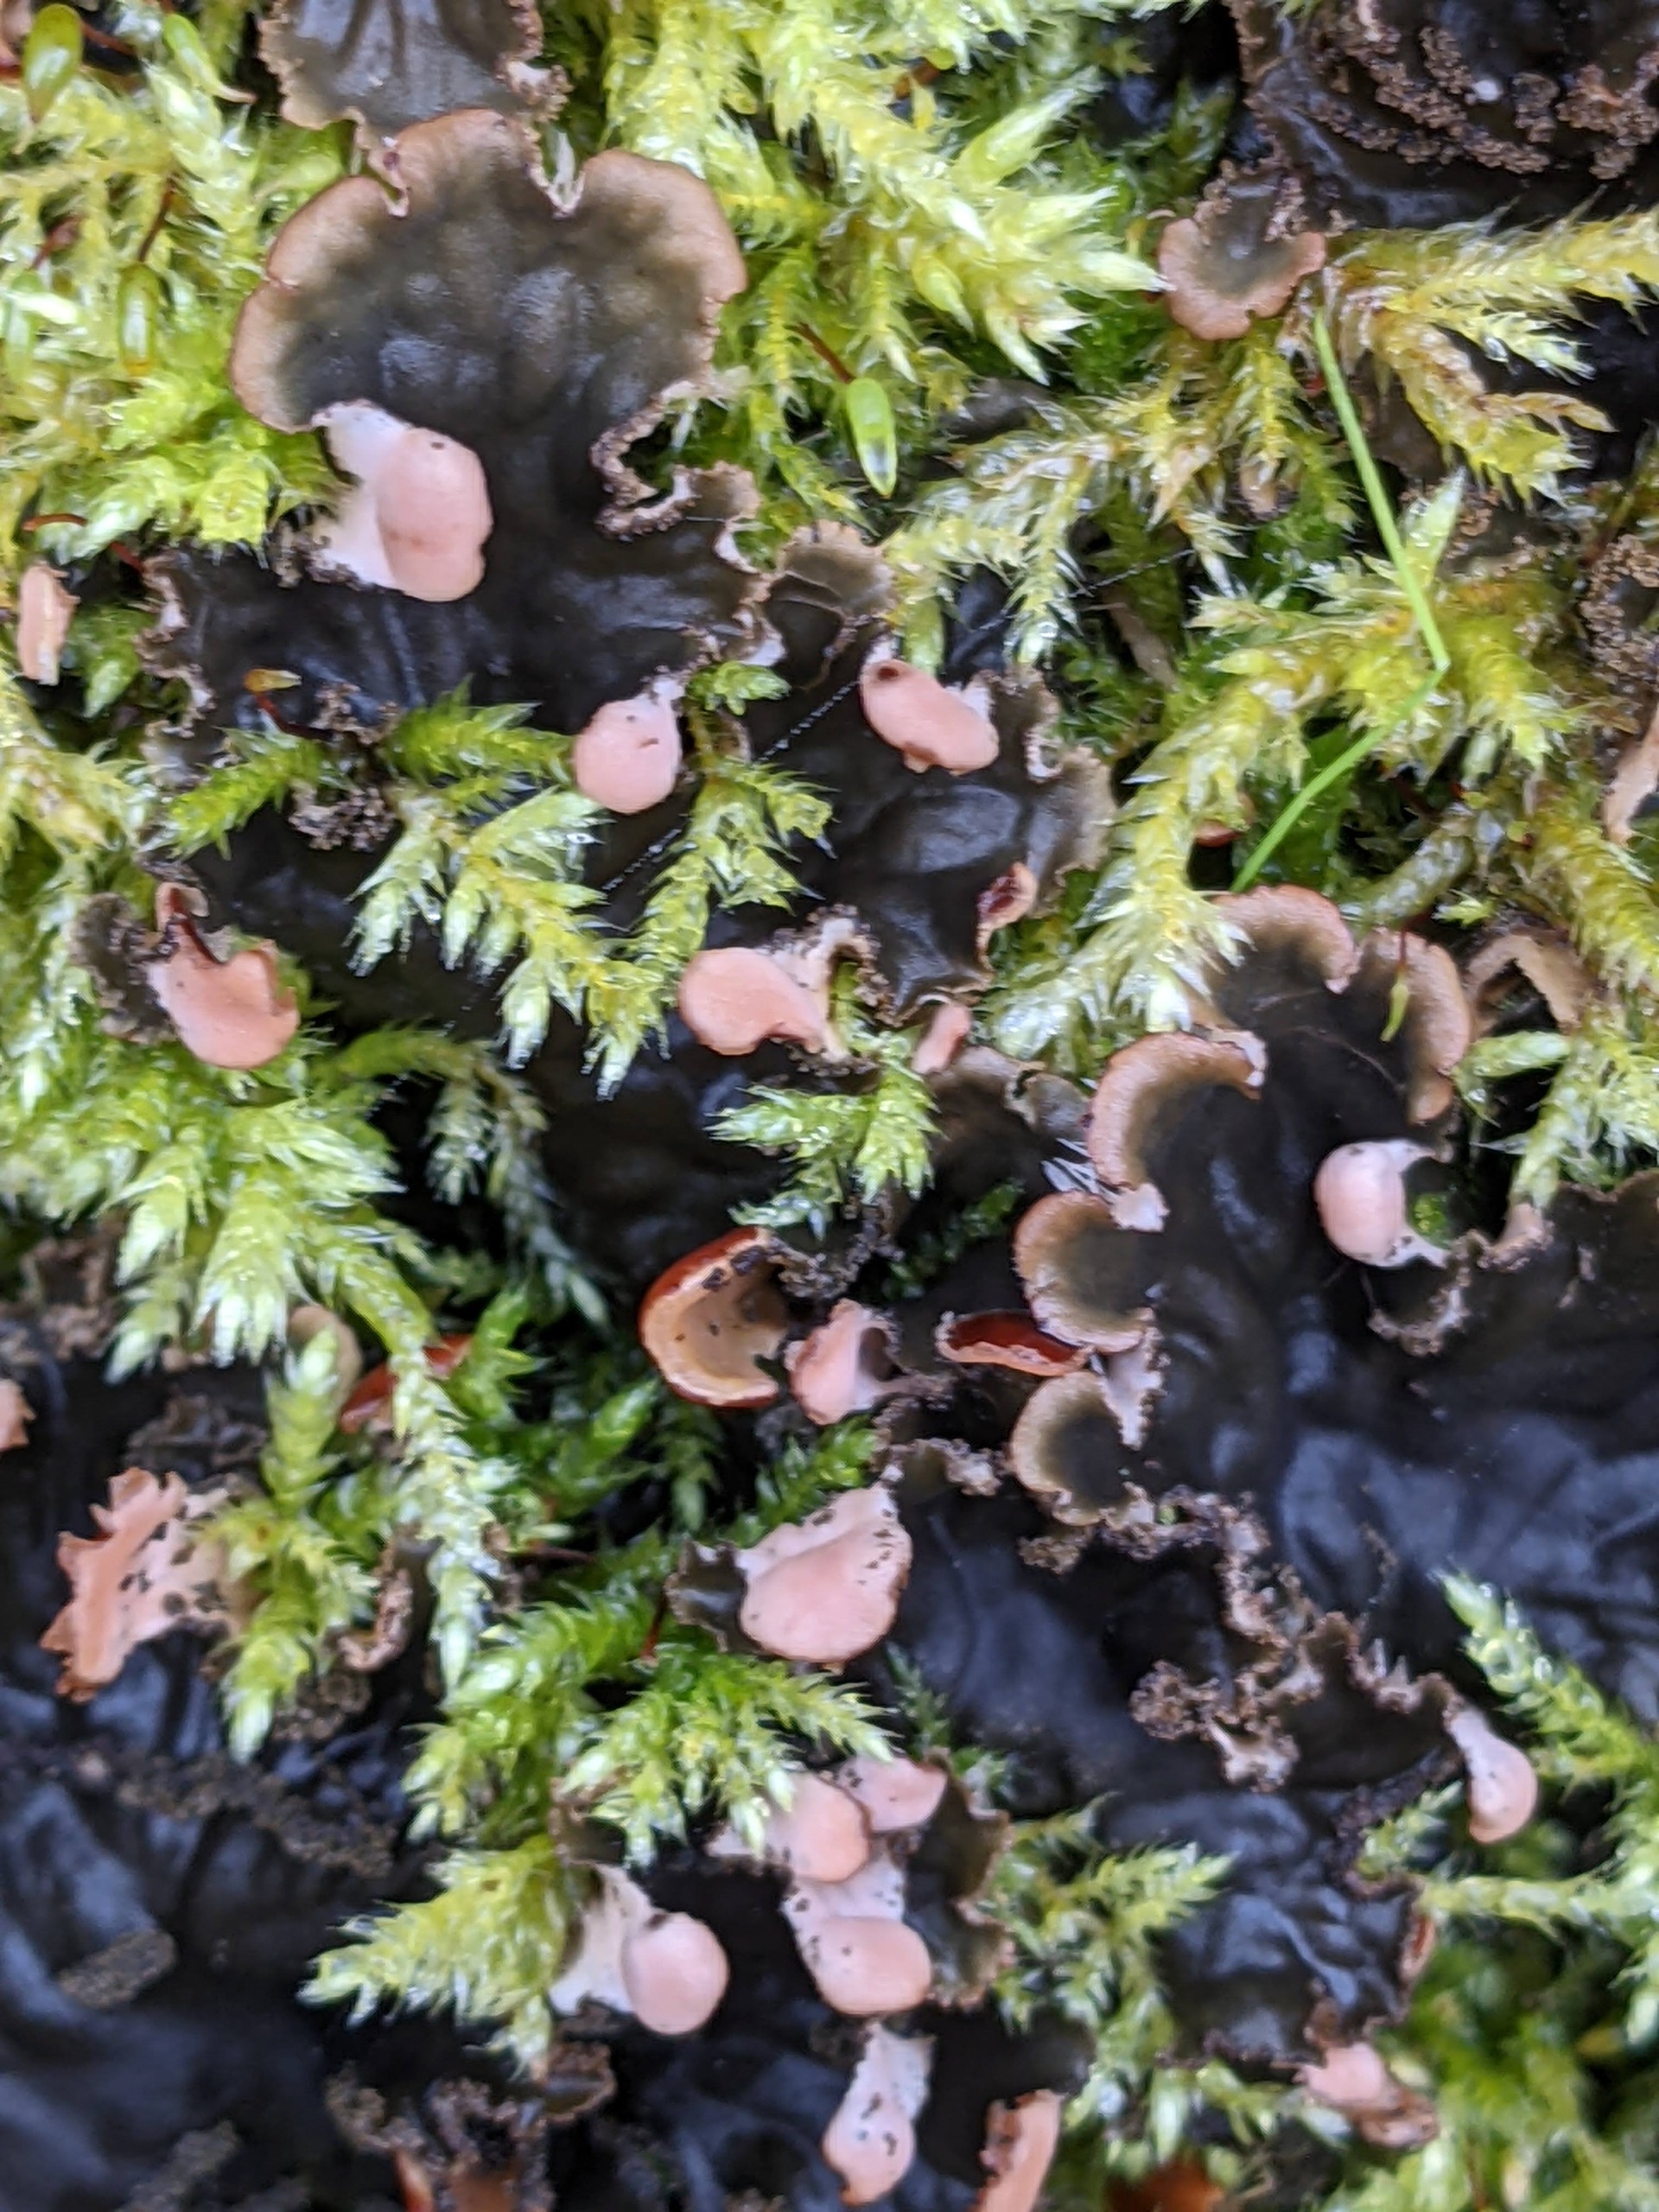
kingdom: Fungi
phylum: Ascomycota
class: Lecanoromycetes
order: Peltigerales
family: Peltigeraceae
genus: Peltigera
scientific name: Peltigera praetextata
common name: Kruset skjoldlav
